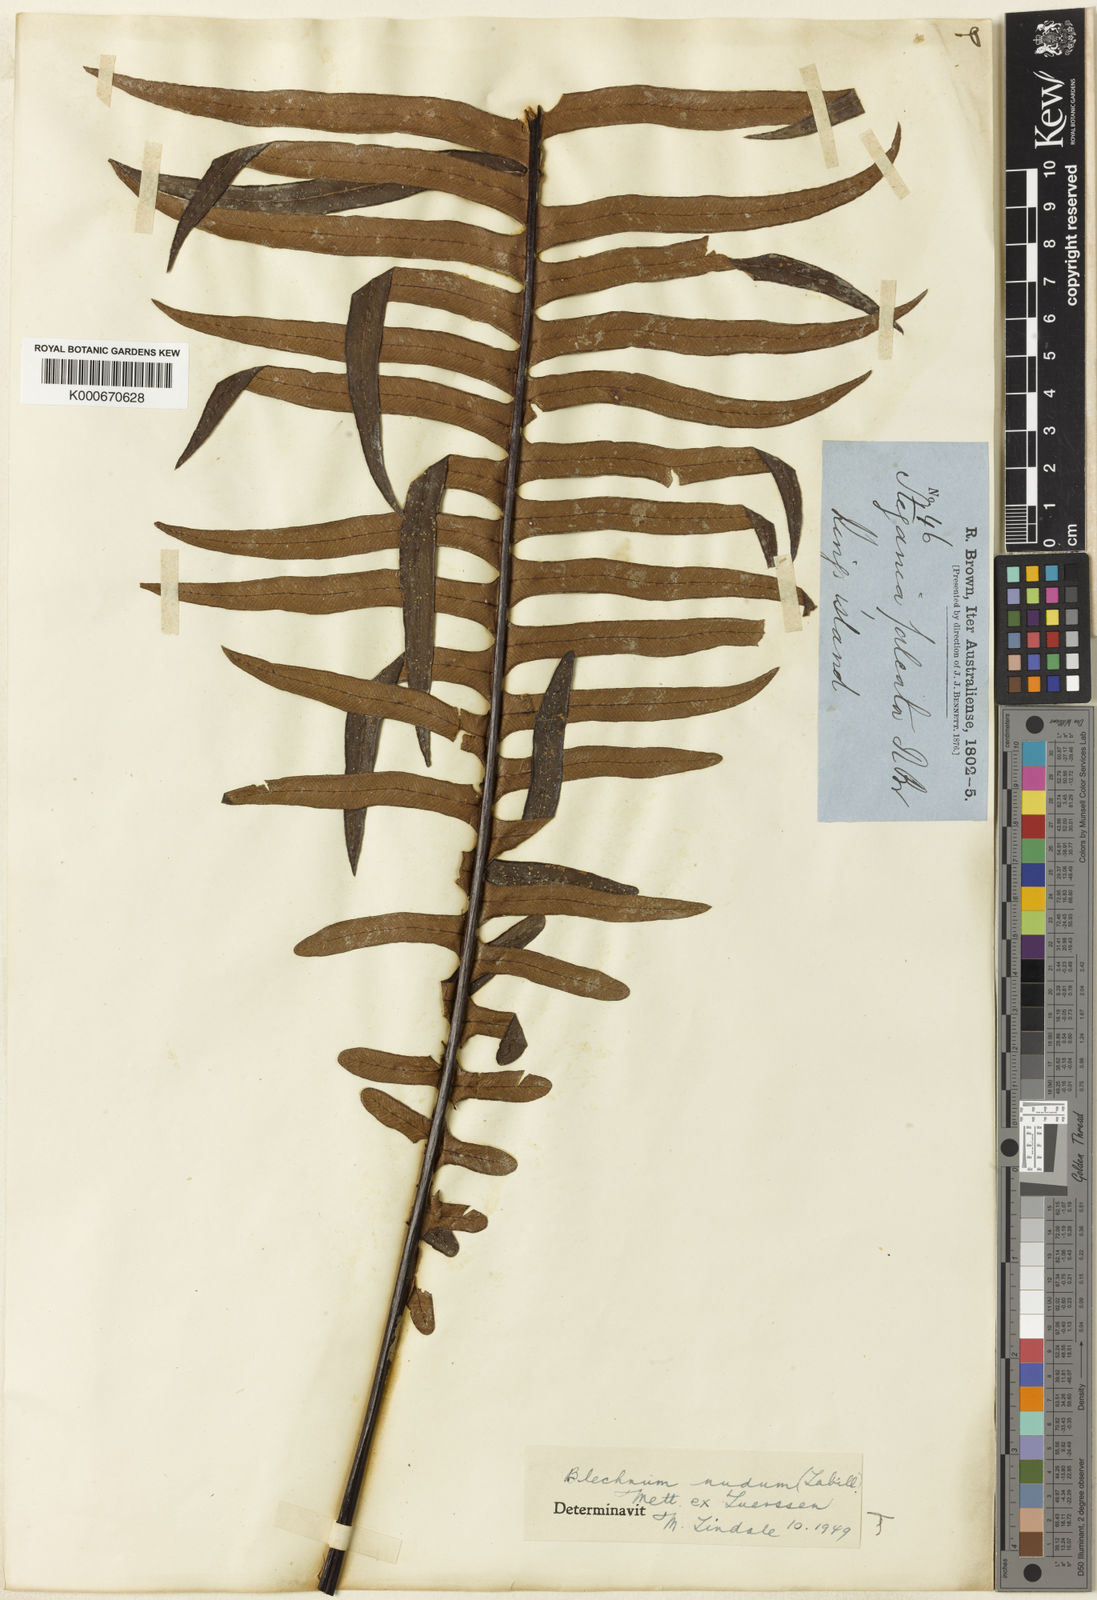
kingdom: Plantae
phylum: Tracheophyta
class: Polypodiopsida
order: Polypodiales
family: Blechnaceae
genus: Blechnum
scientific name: Blechnum
